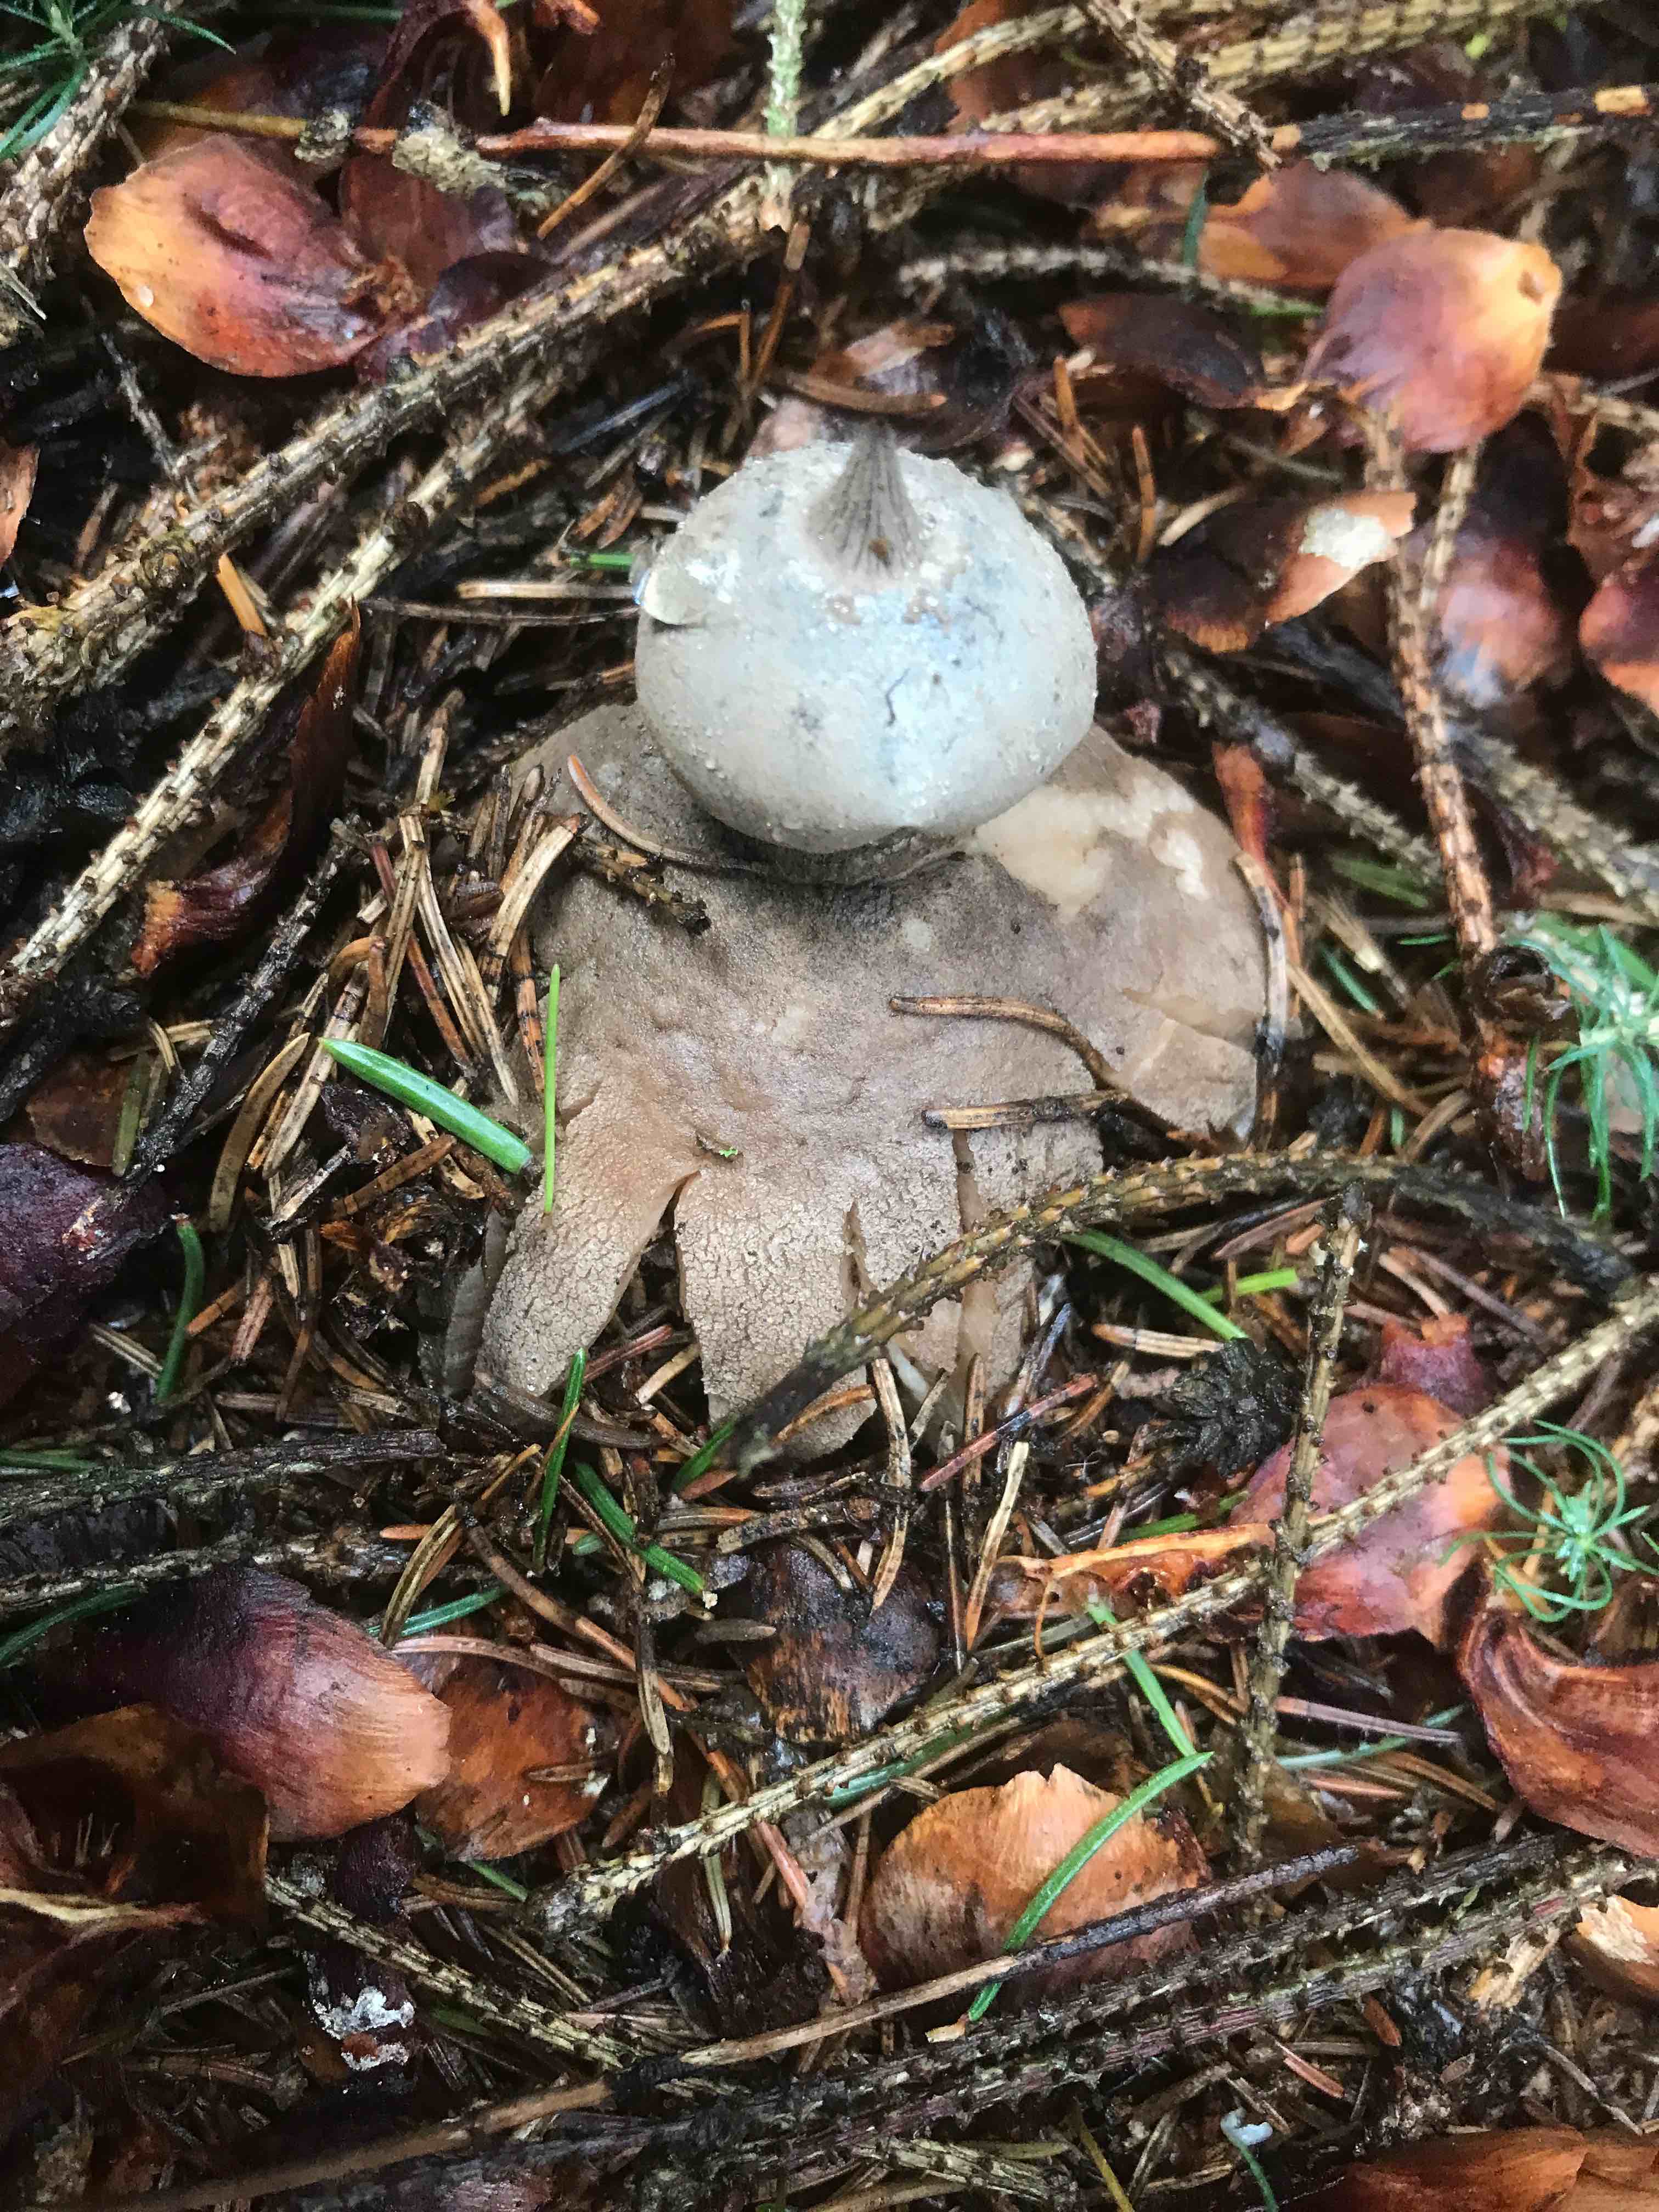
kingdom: Fungi
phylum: Basidiomycota
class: Agaricomycetes
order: Geastrales
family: Geastraceae
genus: Geastrum
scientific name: Geastrum striatum
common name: krave-stjernebold
